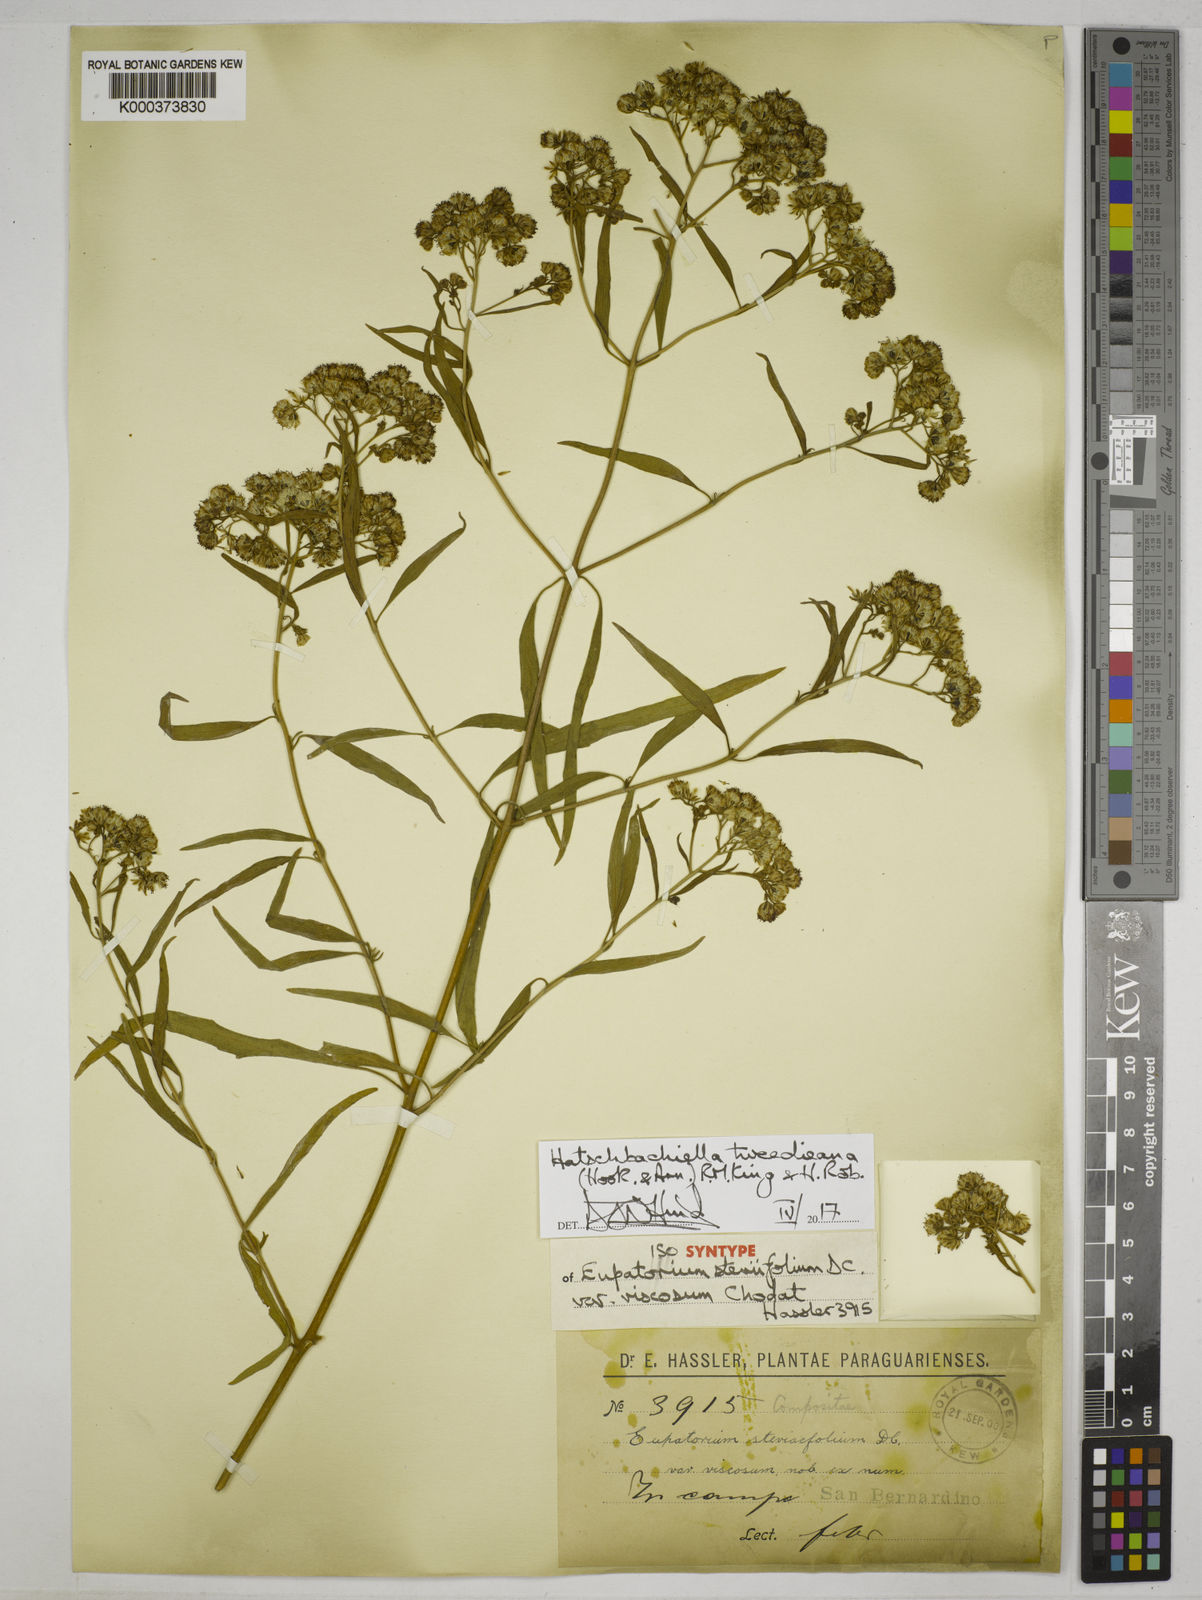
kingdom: Plantae
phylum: Tracheophyta
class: Magnoliopsida
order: Asterales
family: Asteraceae
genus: Hatschbachiella
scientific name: Hatschbachiella tweedieana
